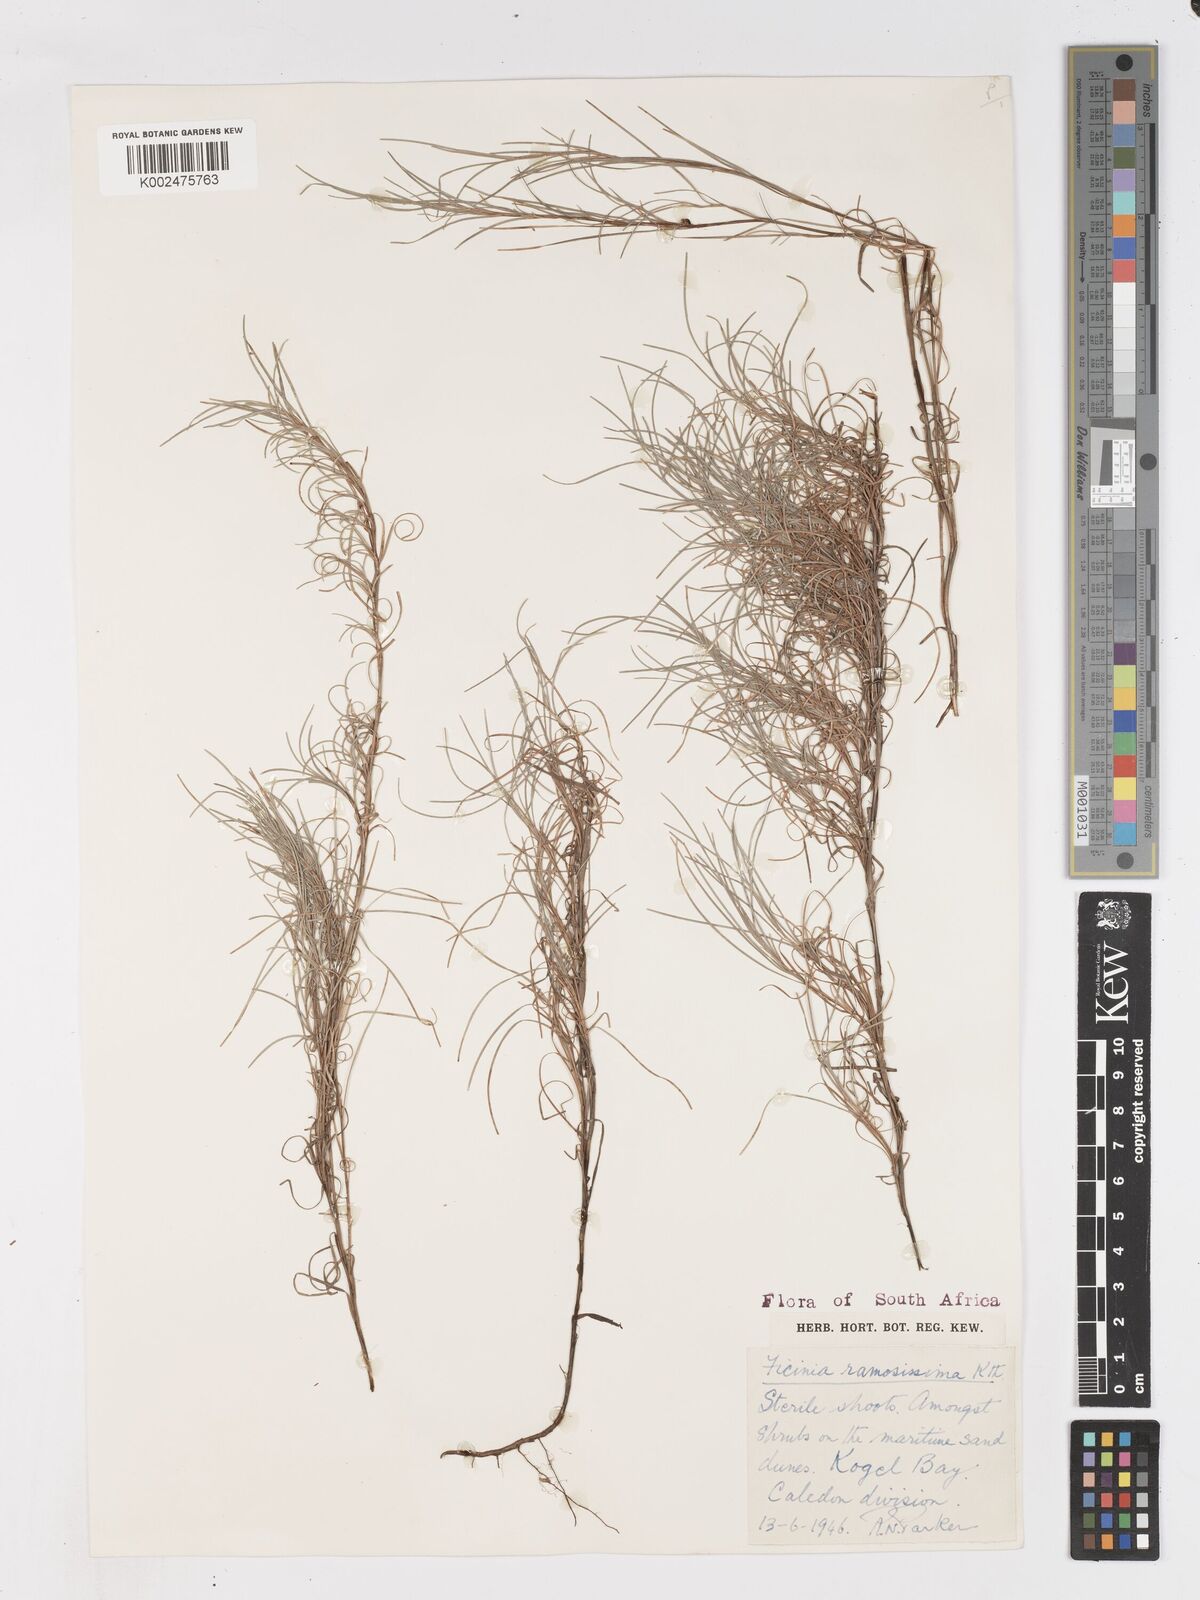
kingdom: Plantae
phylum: Tracheophyta
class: Liliopsida
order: Poales
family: Cyperaceae
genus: Ficinia
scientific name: Ficinia ramosissima
